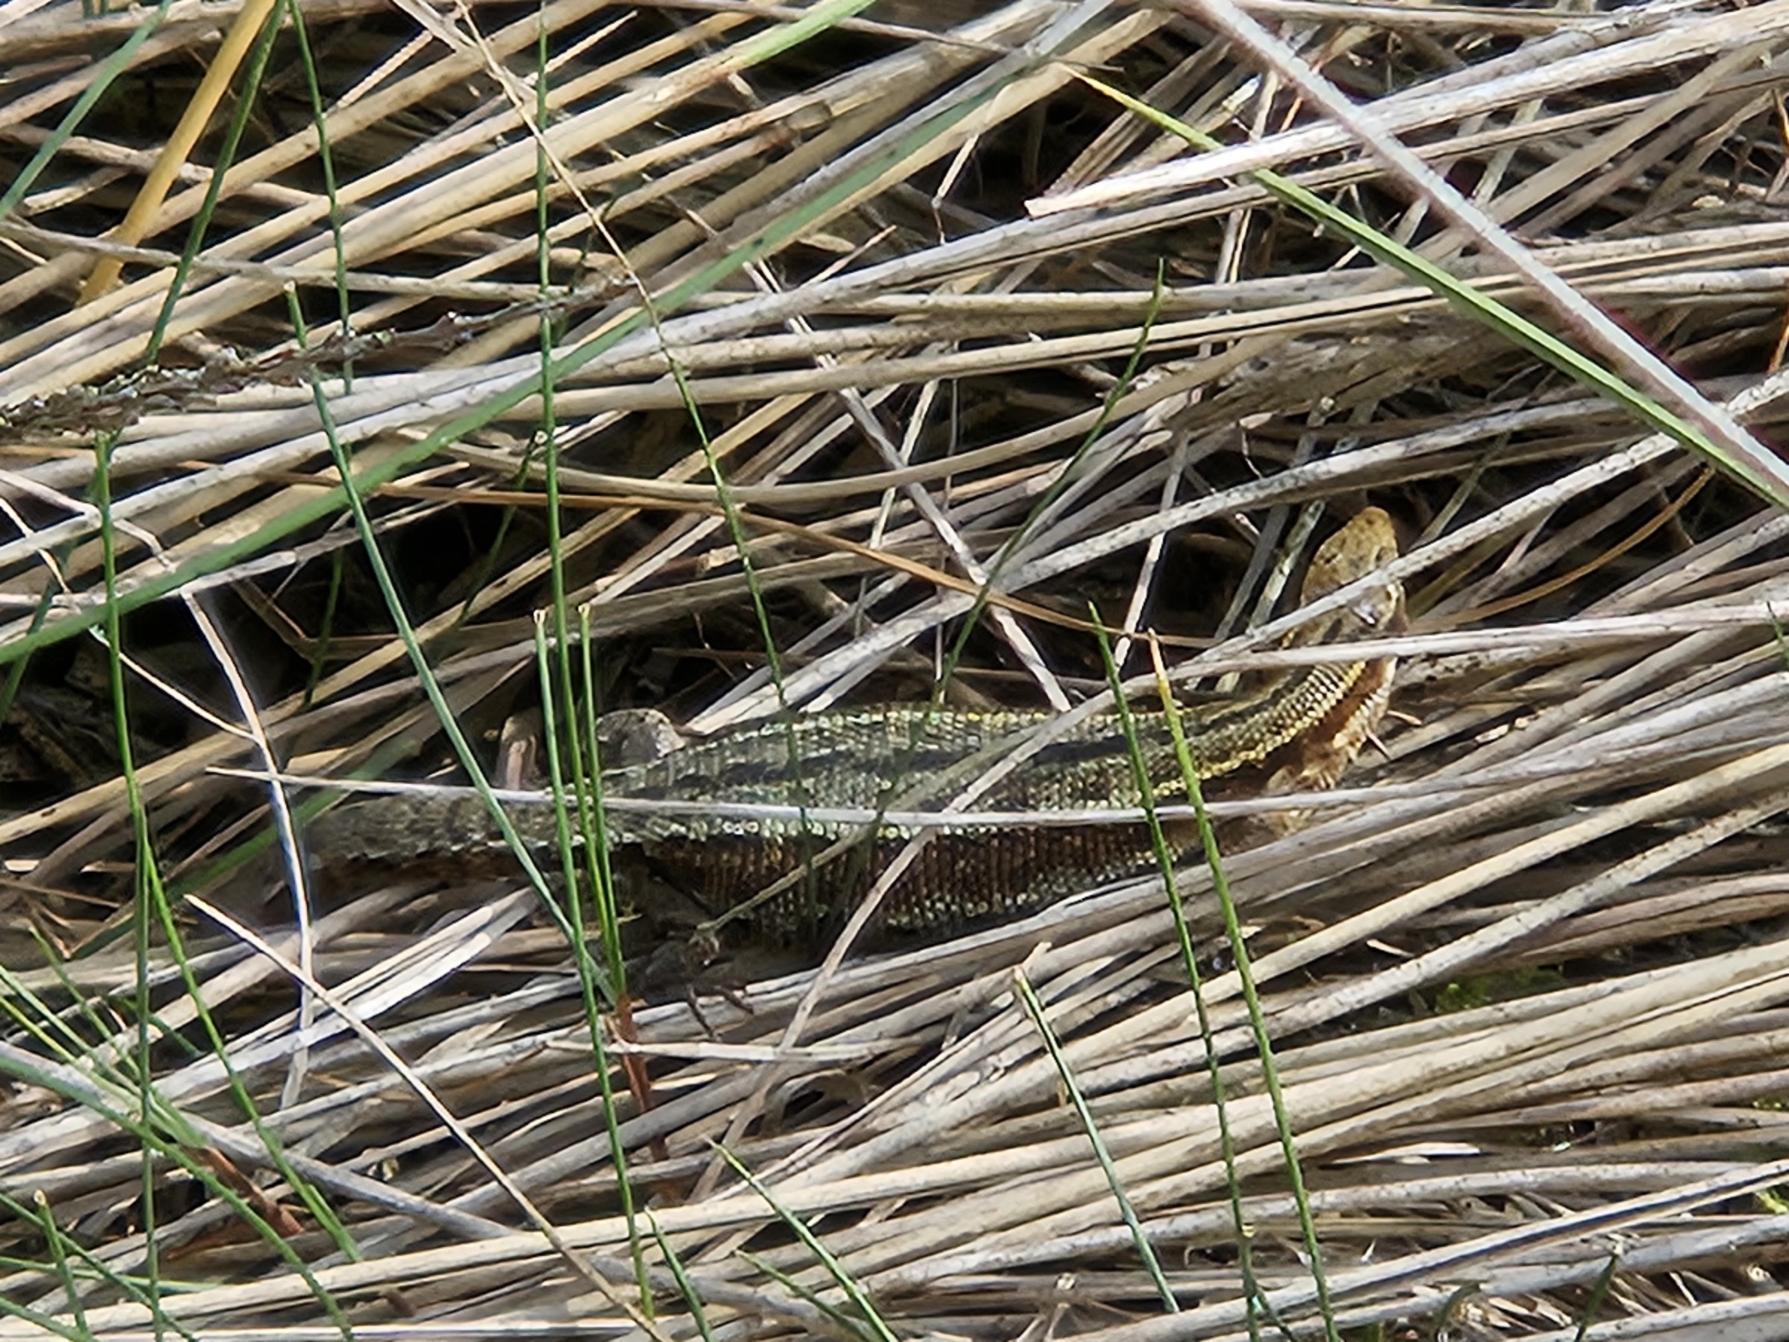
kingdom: Animalia
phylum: Chordata
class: Squamata
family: Lacertidae
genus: Zootoca
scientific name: Zootoca vivipara
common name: Skovfirben
